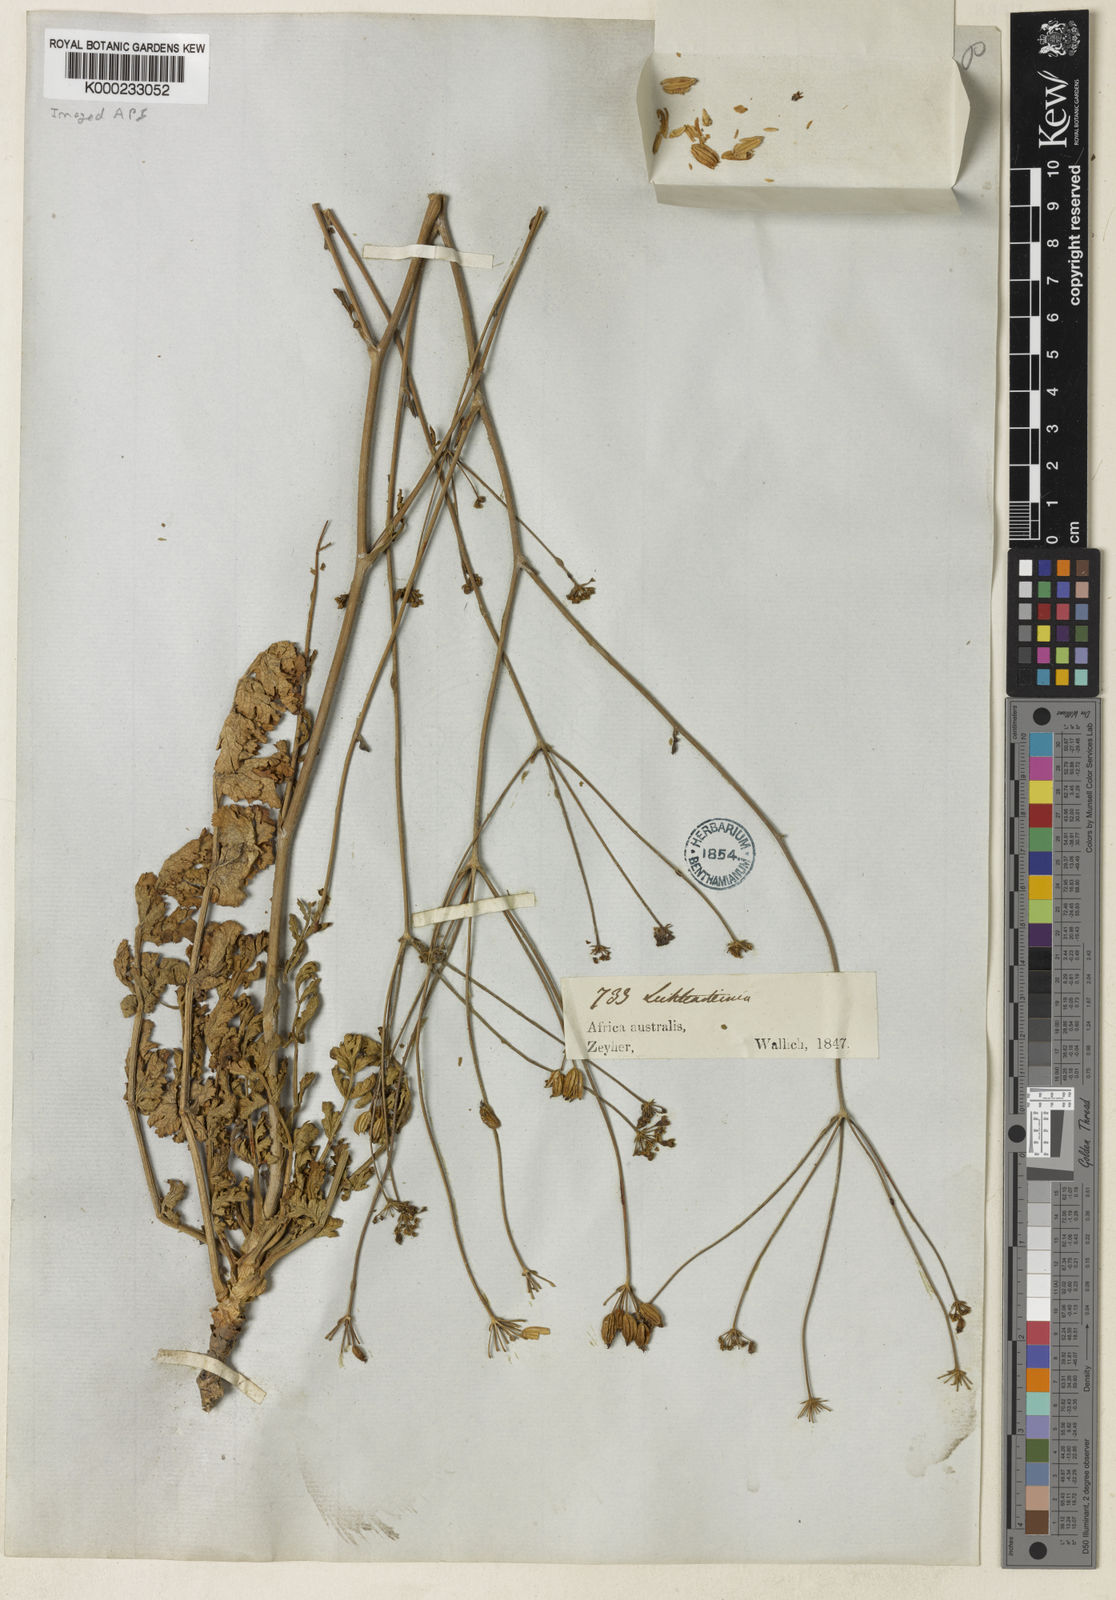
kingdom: Plantae
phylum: Tracheophyta
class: Magnoliopsida
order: Apiales
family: Apiaceae
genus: Annesorhiza
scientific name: Annesorhiza
